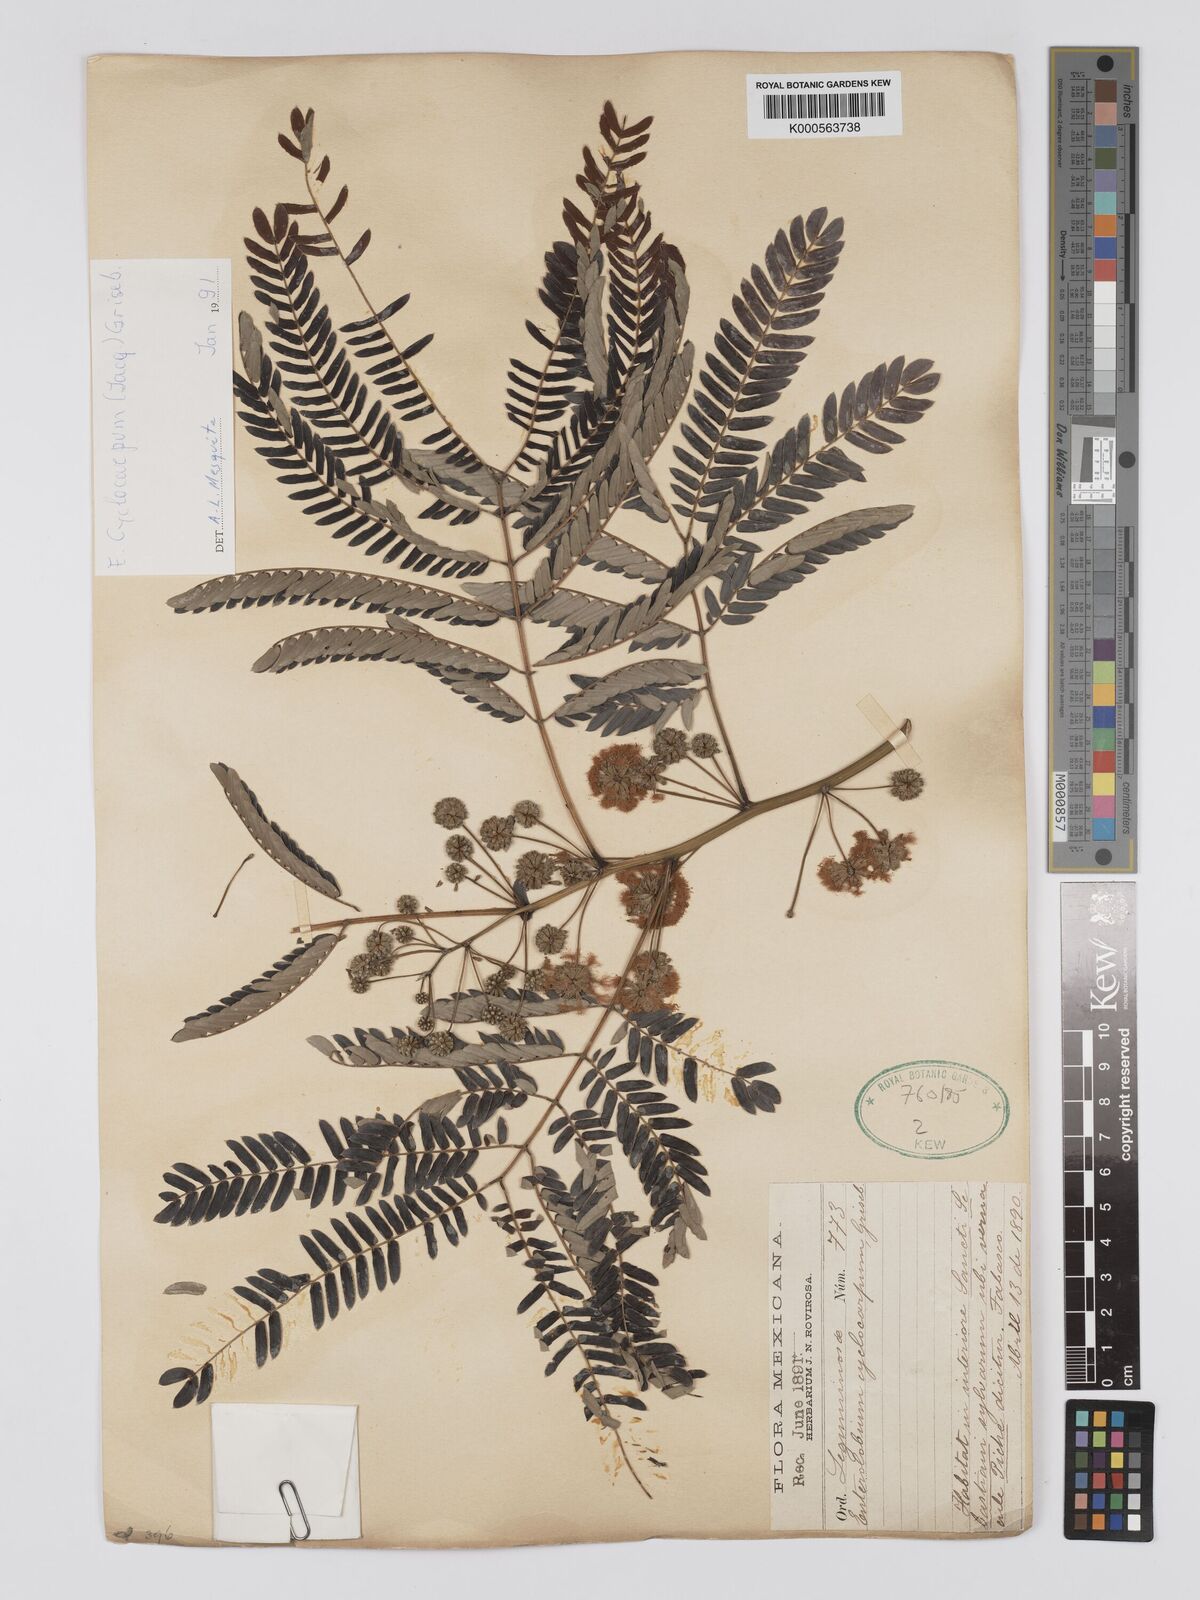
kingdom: Plantae
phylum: Tracheophyta
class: Magnoliopsida
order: Fabales
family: Fabaceae
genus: Enterolobium
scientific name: Enterolobium cyclocarpum
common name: Ear tree
